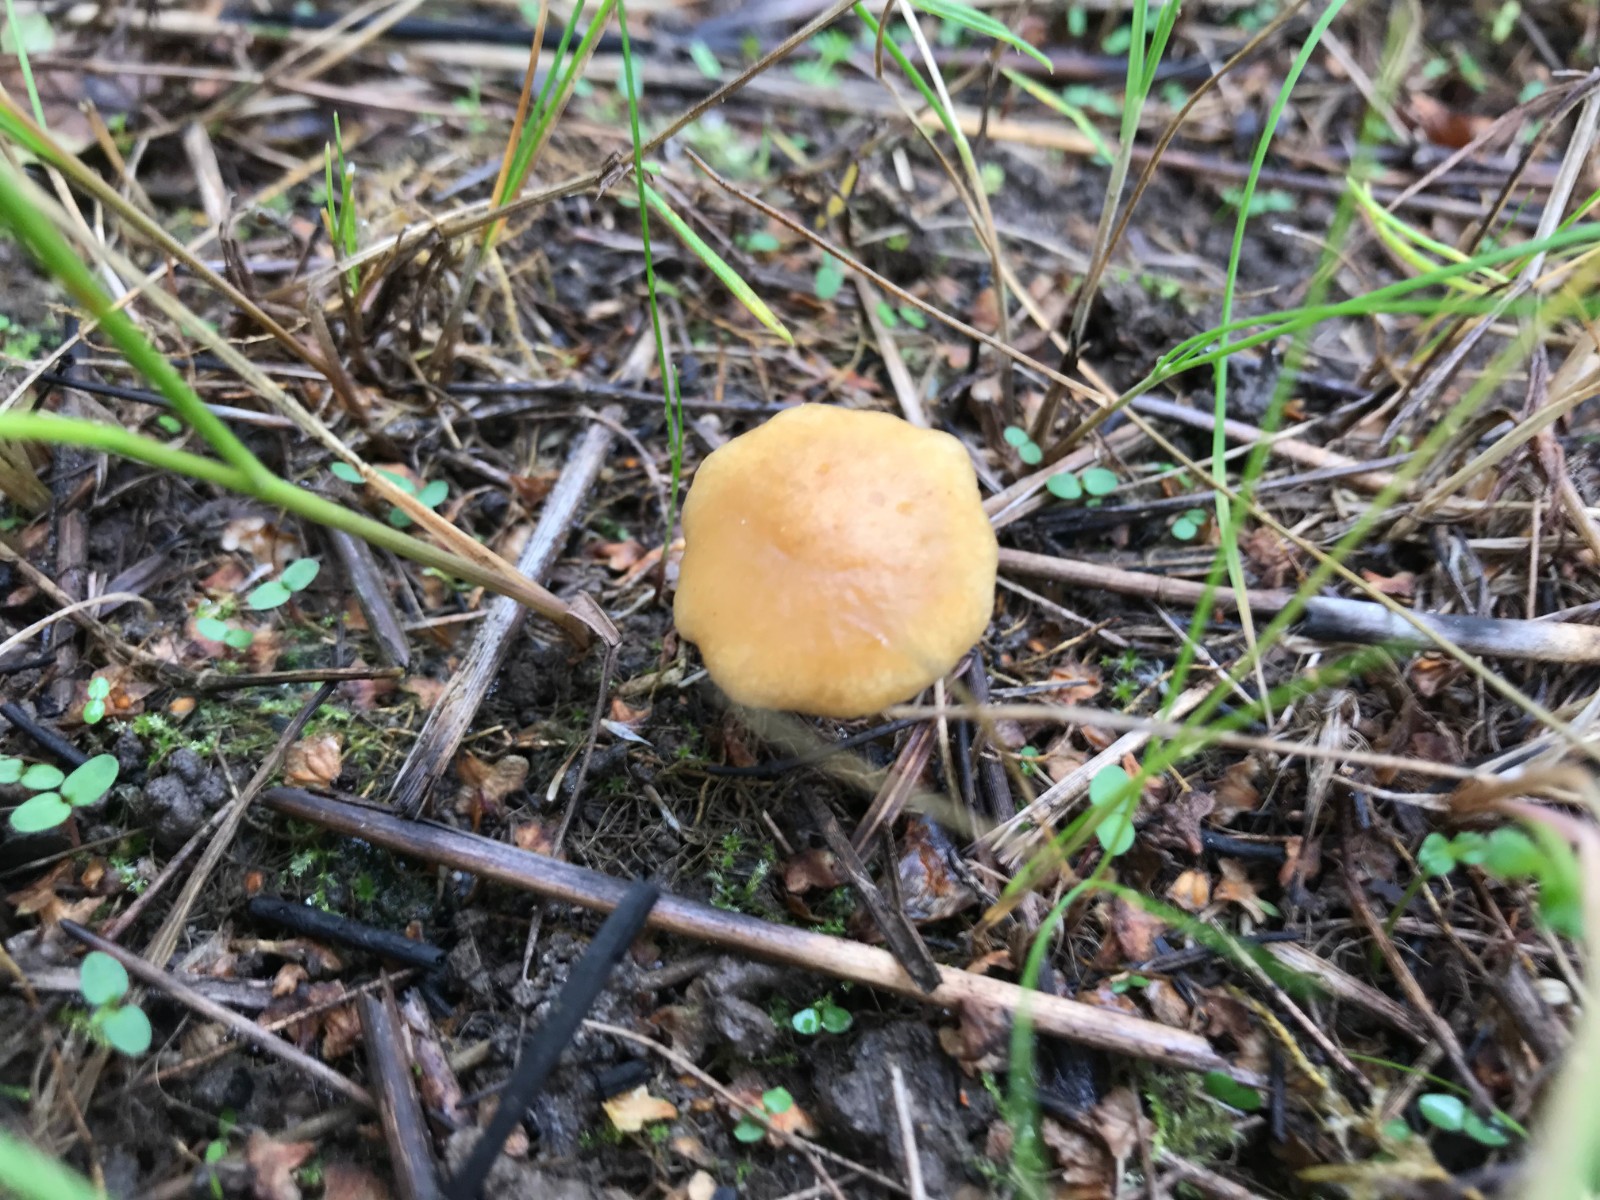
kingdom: Fungi
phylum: Basidiomycota
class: Agaricomycetes
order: Agaricales
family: Strophariaceae
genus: Agrocybe
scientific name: Agrocybe vervacti
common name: lav agerhat
